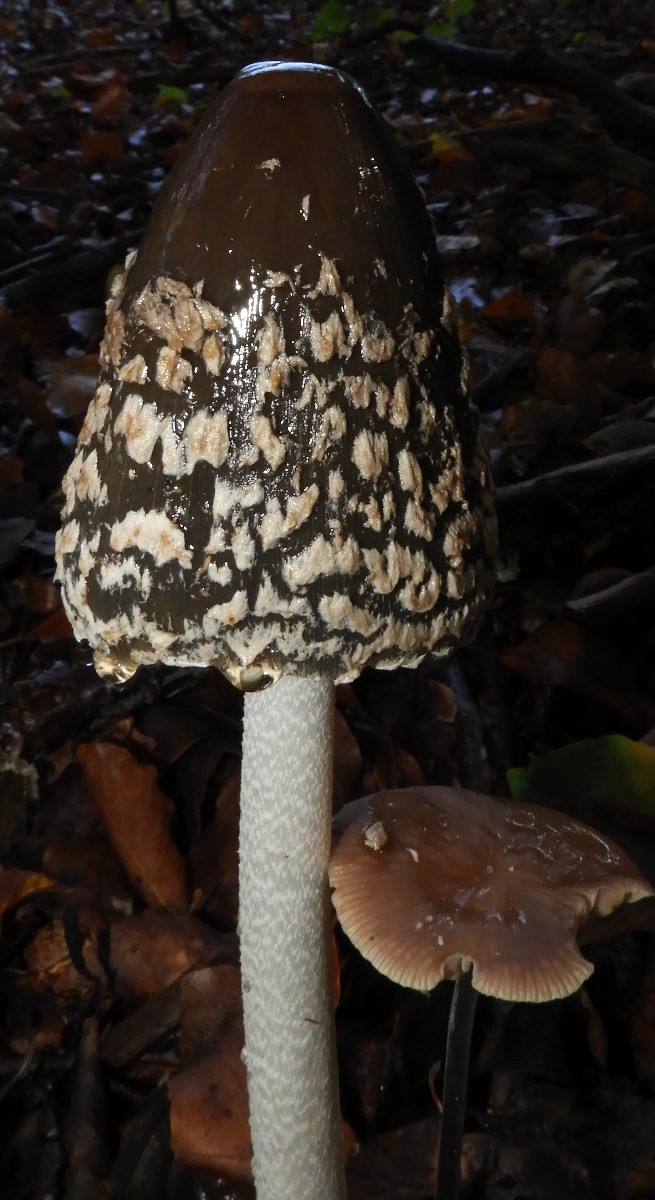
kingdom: Fungi
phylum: Basidiomycota
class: Agaricomycetes
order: Agaricales
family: Psathyrellaceae
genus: Coprinopsis
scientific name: Coprinopsis picacea
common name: skade-blækhat
